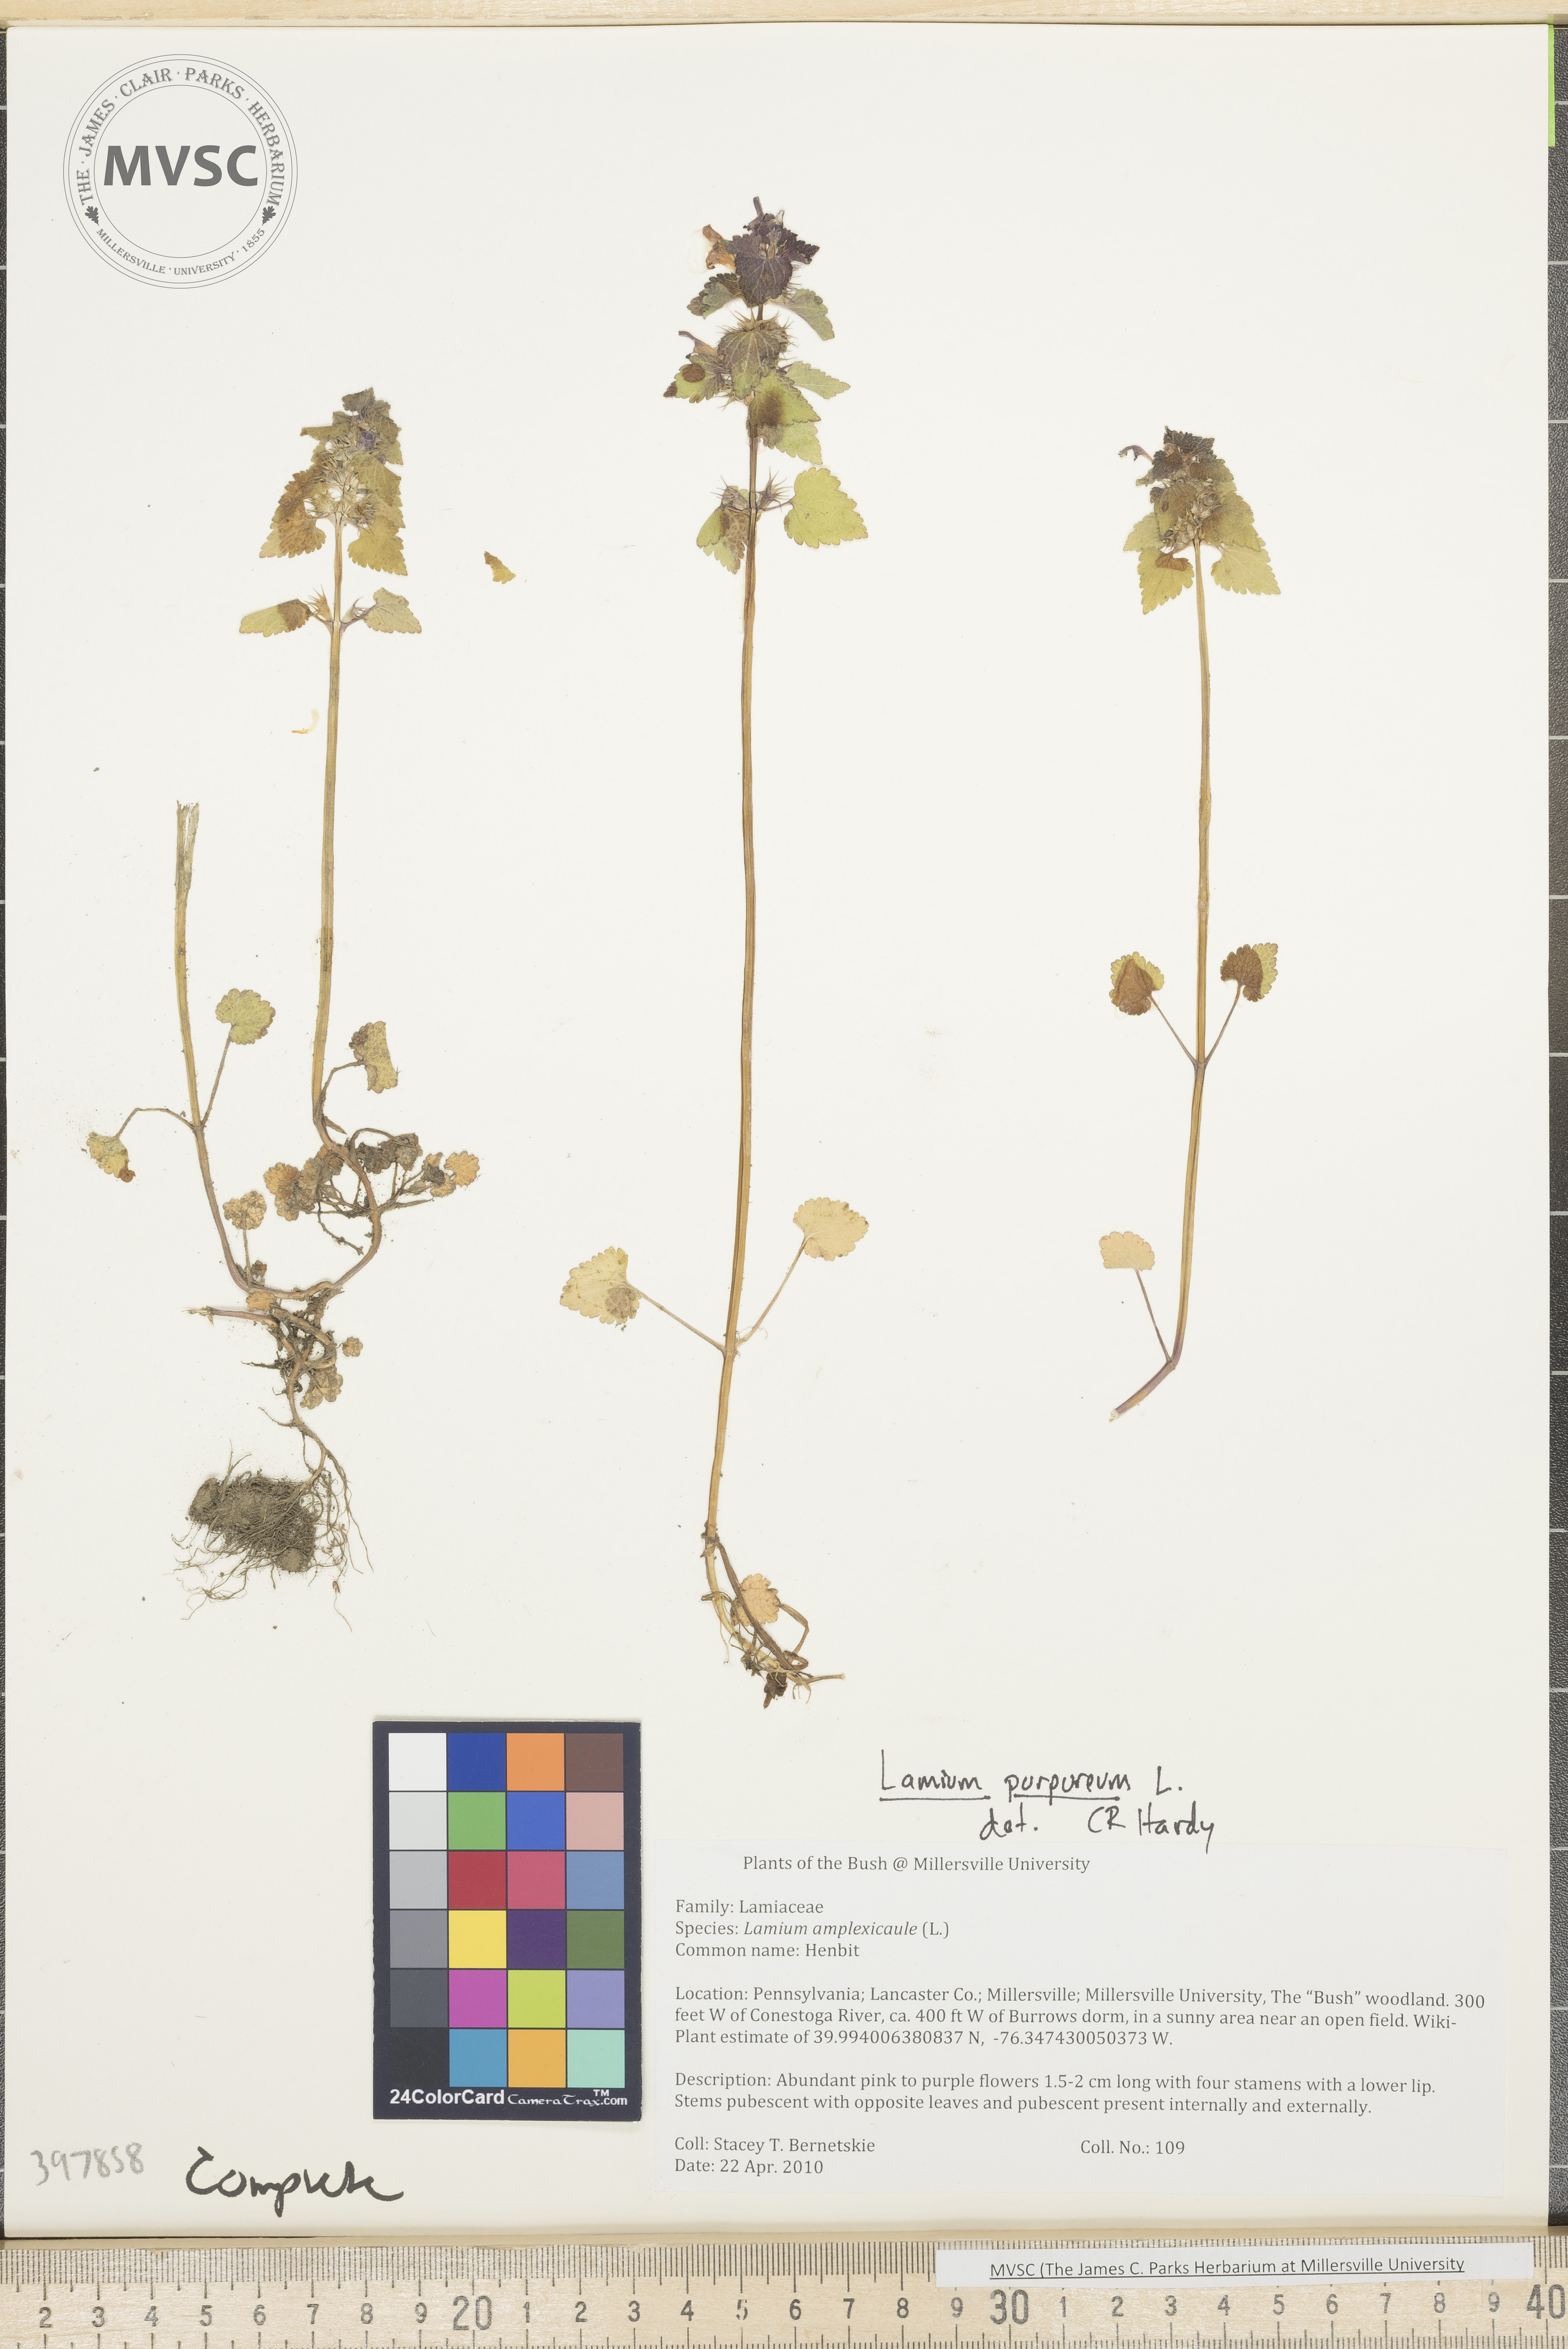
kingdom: Plantae
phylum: Tracheophyta
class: Magnoliopsida
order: Lamiales
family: Lamiaceae
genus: Lamium
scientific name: Lamium purpureum
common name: Purple dead-nettle
